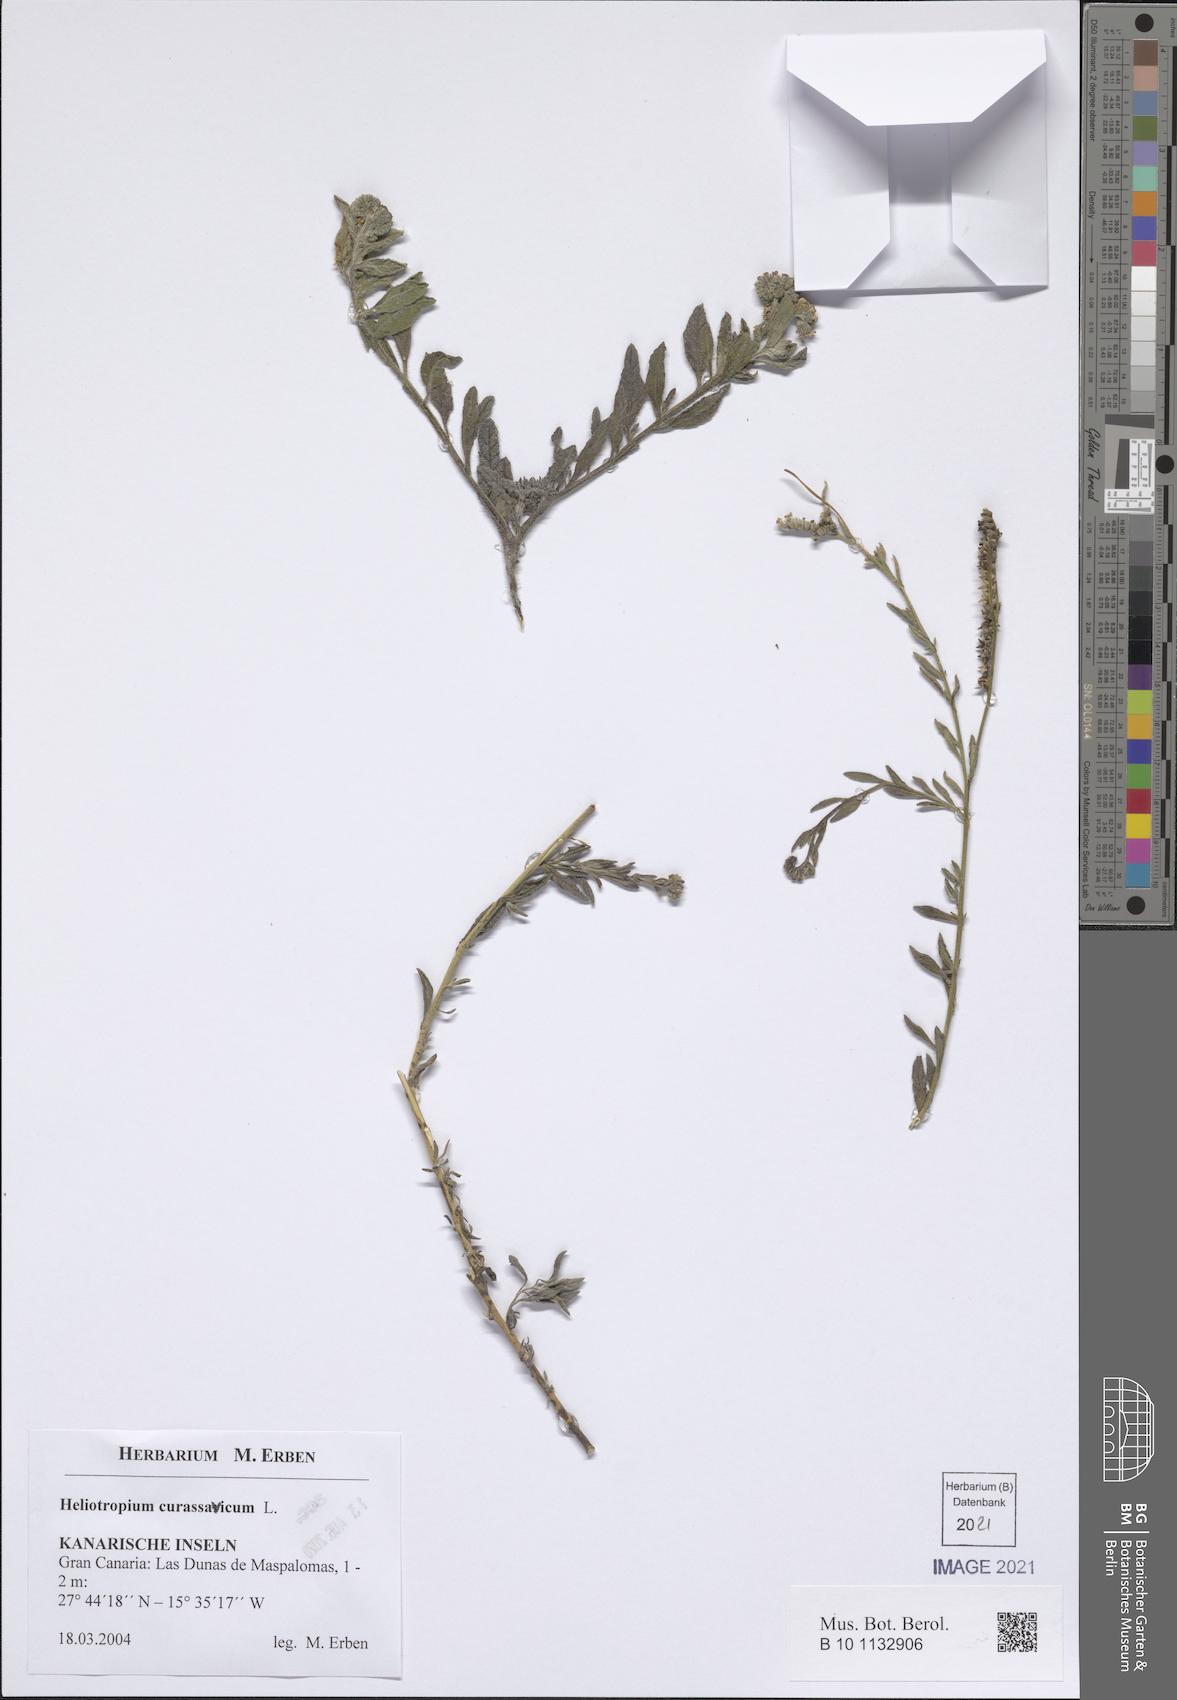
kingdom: Plantae
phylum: Tracheophyta
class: Magnoliopsida
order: Boraginales
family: Heliotropiaceae
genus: Heliotropium
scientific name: Heliotropium curassavicum
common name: Seaside heliotrope
